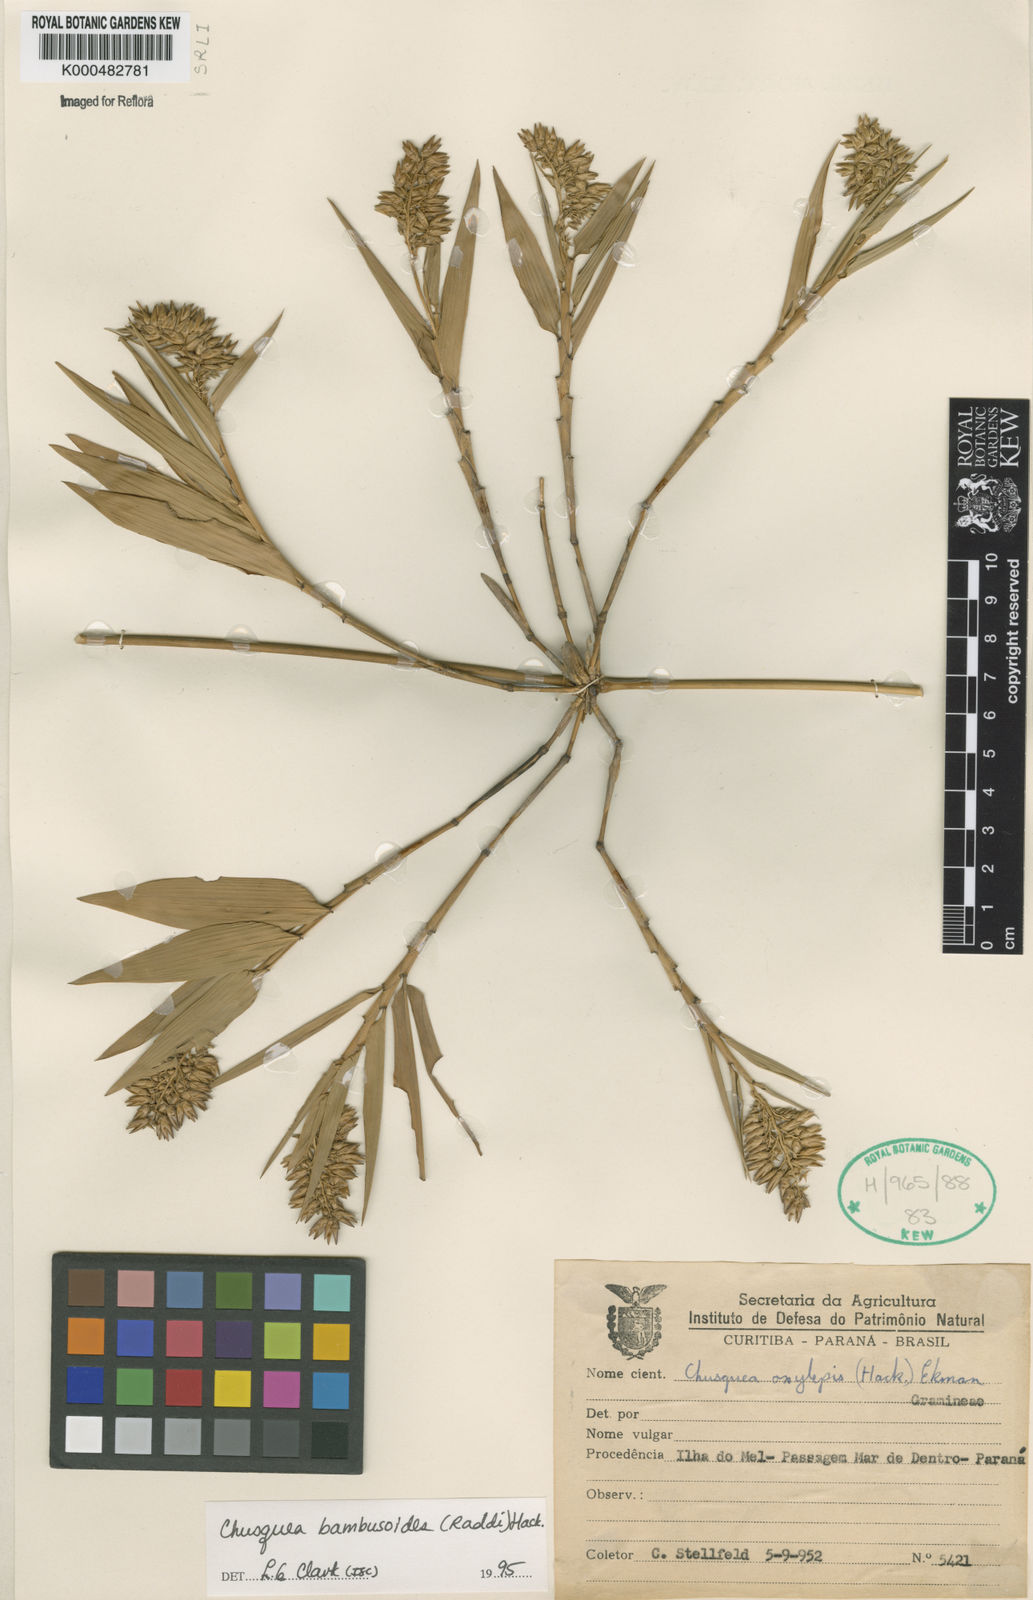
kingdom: Plantae
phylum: Tracheophyta
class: Liliopsida
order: Poales
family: Poaceae
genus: Chusquea
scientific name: Chusquea bambusoides
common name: Brazil scrambling bamboo
